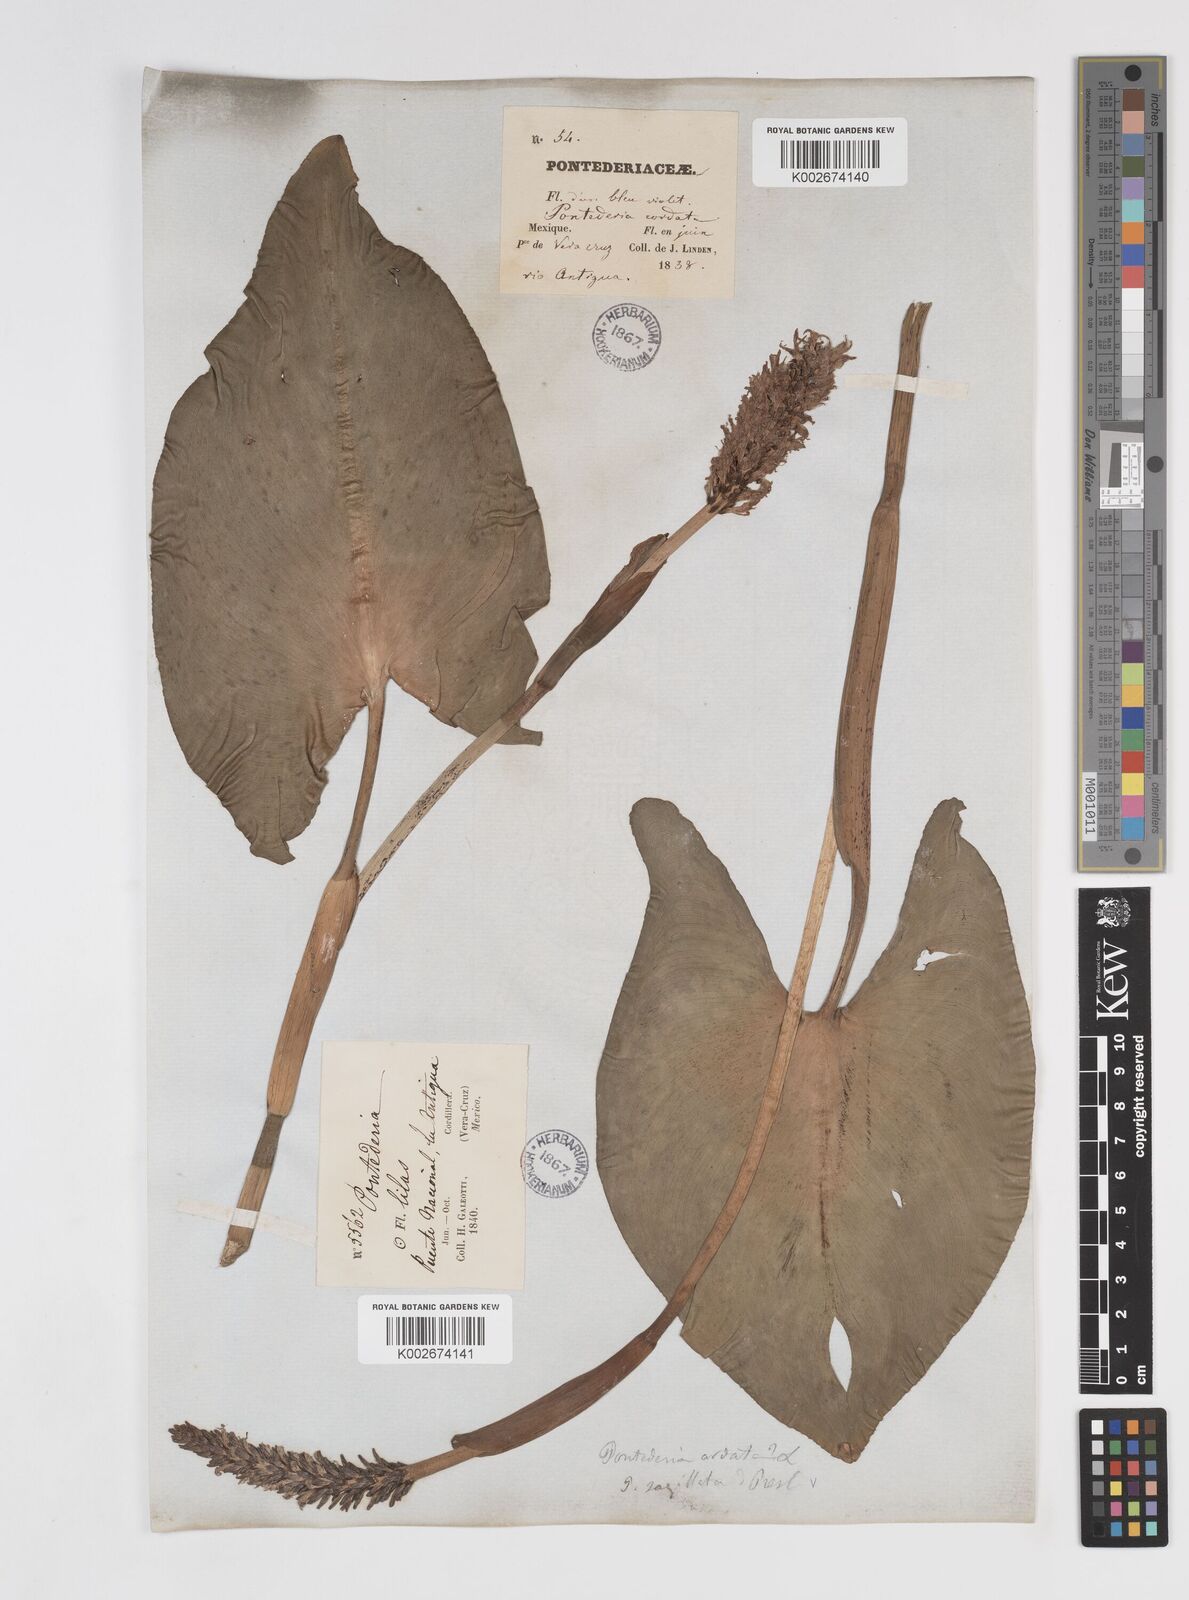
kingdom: Plantae
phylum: Tracheophyta
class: Liliopsida
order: Commelinales
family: Pontederiaceae
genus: Pontederia
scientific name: Pontederia sagittata
